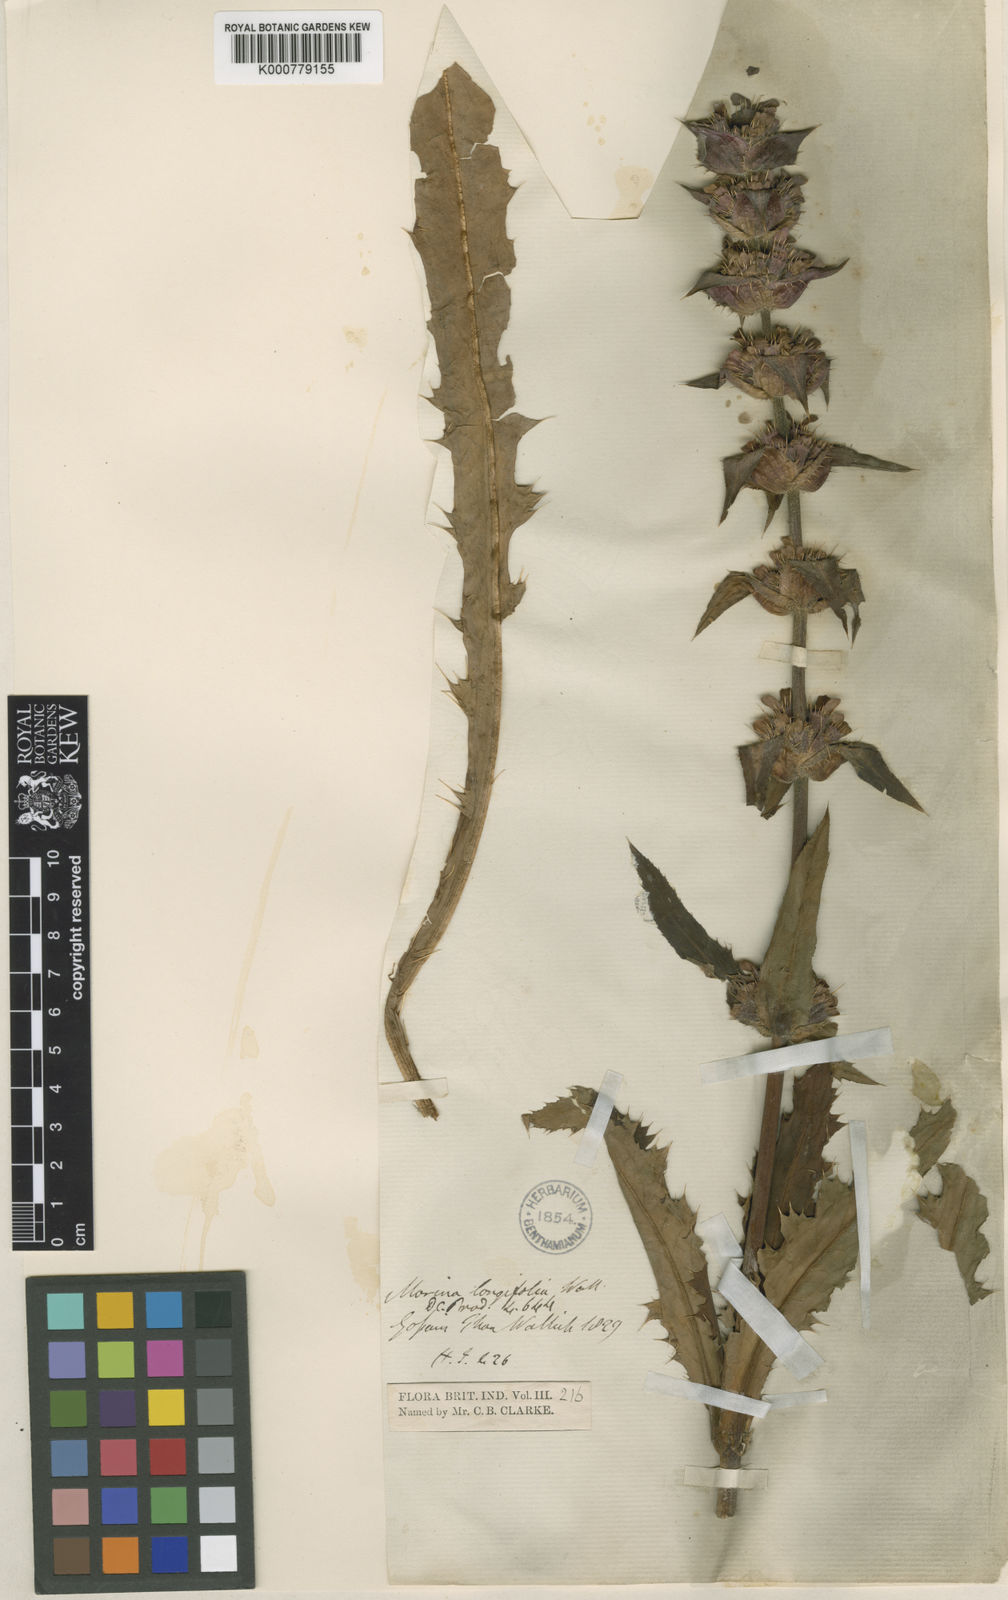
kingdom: Plantae
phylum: Tracheophyta
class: Magnoliopsida
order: Dipsacales
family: Caprifoliaceae
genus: Morina
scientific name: Morina
